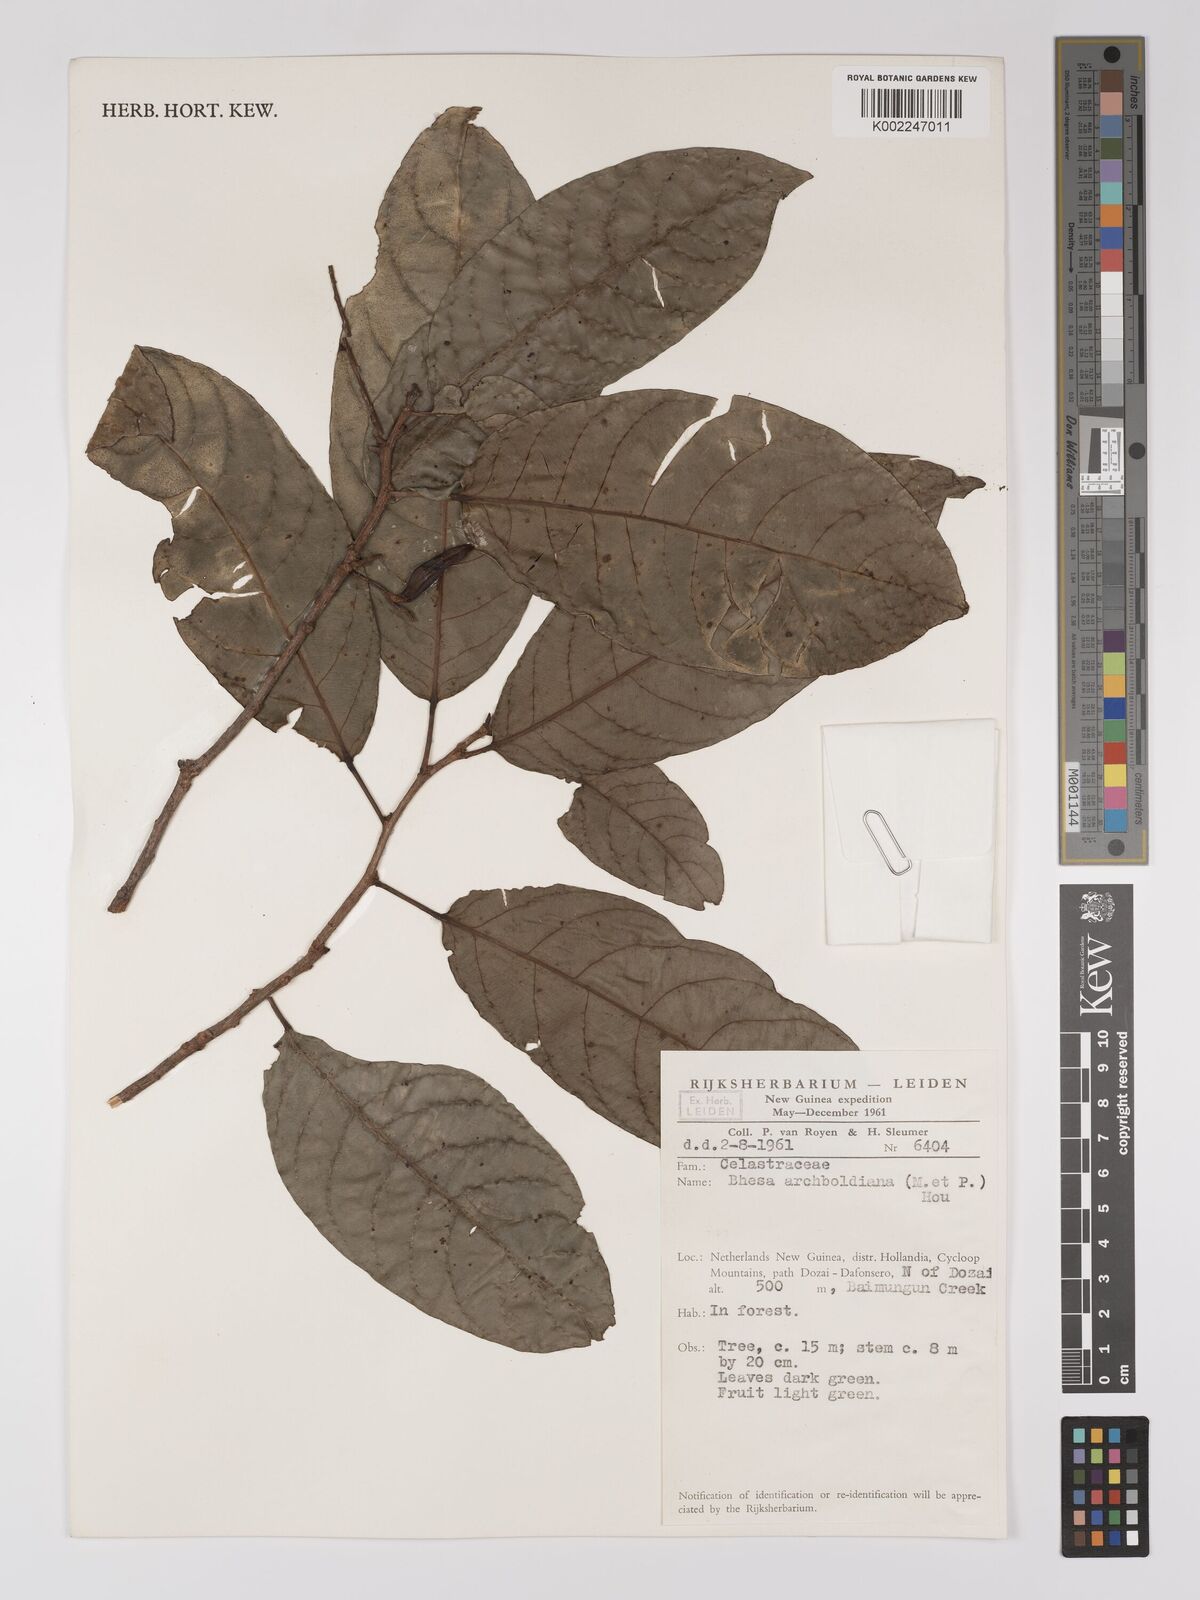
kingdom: Plantae
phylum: Tracheophyta
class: Magnoliopsida
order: Malpighiales
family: Centroplacaceae
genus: Bhesa
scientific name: Bhesa archboldiana
